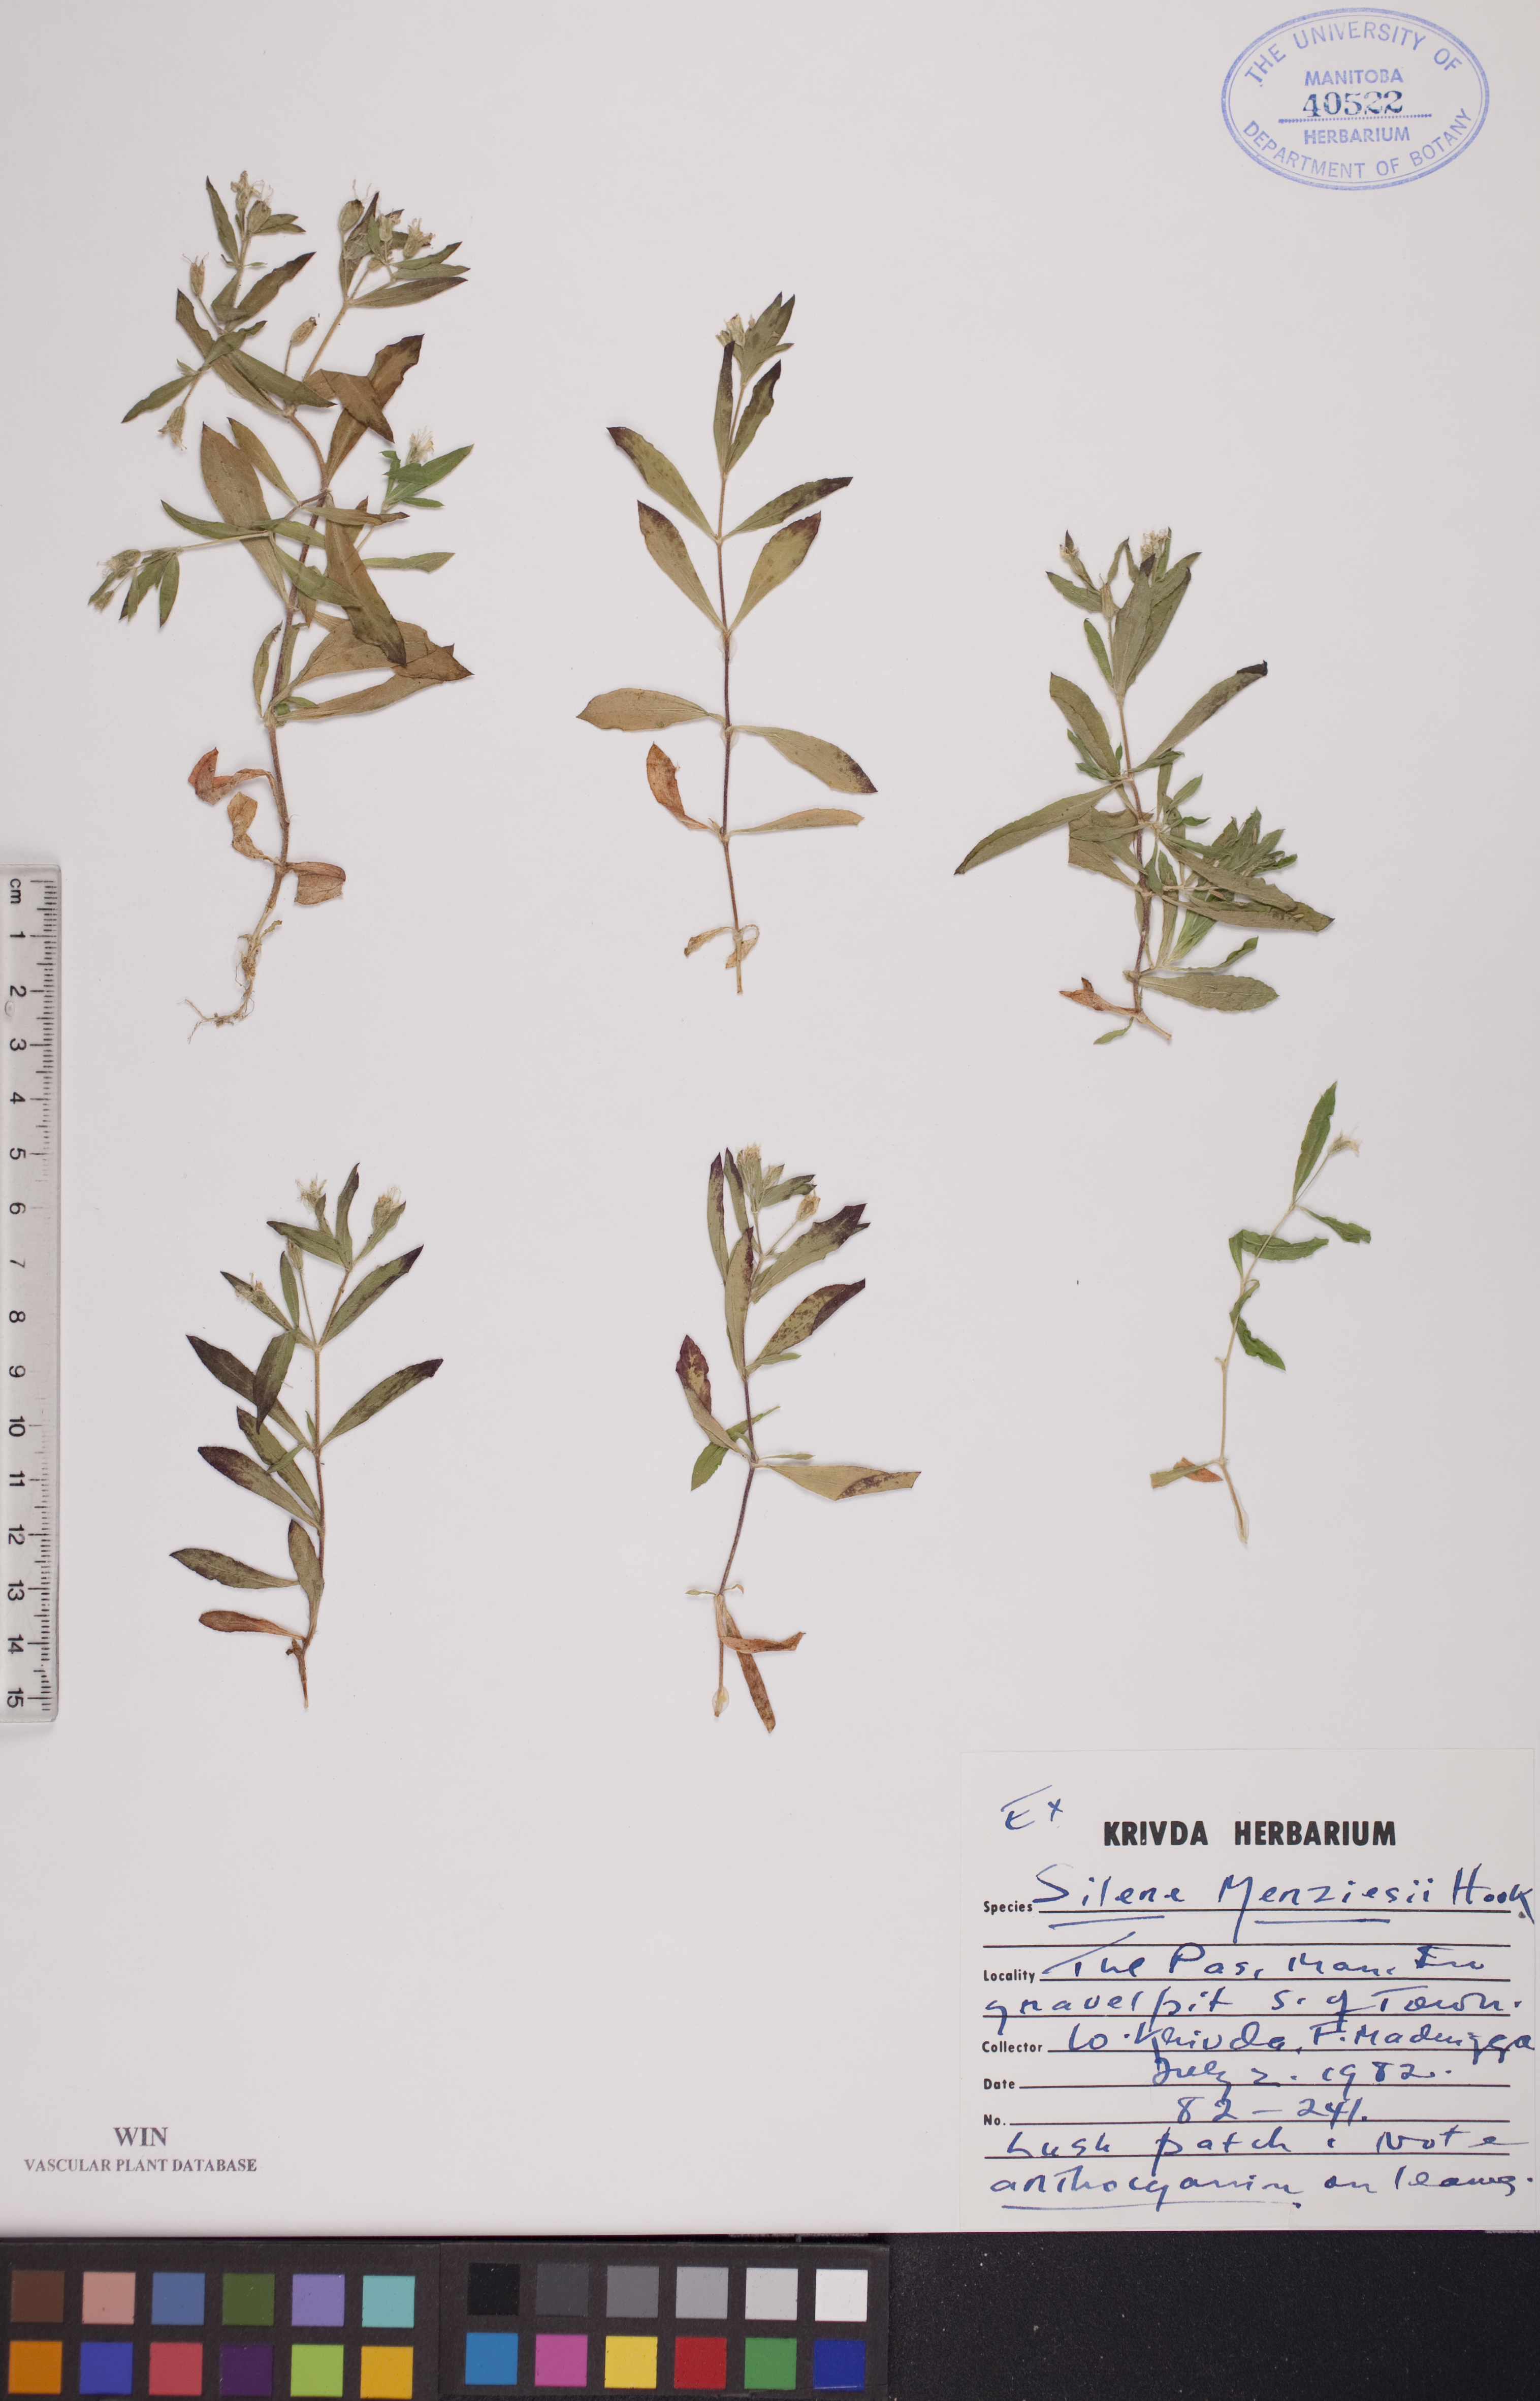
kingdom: Plantae
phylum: Tracheophyta
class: Magnoliopsida
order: Caryophyllales
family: Caryophyllaceae
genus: Silene
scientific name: Silene menziesii
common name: Menzies's catchfly
